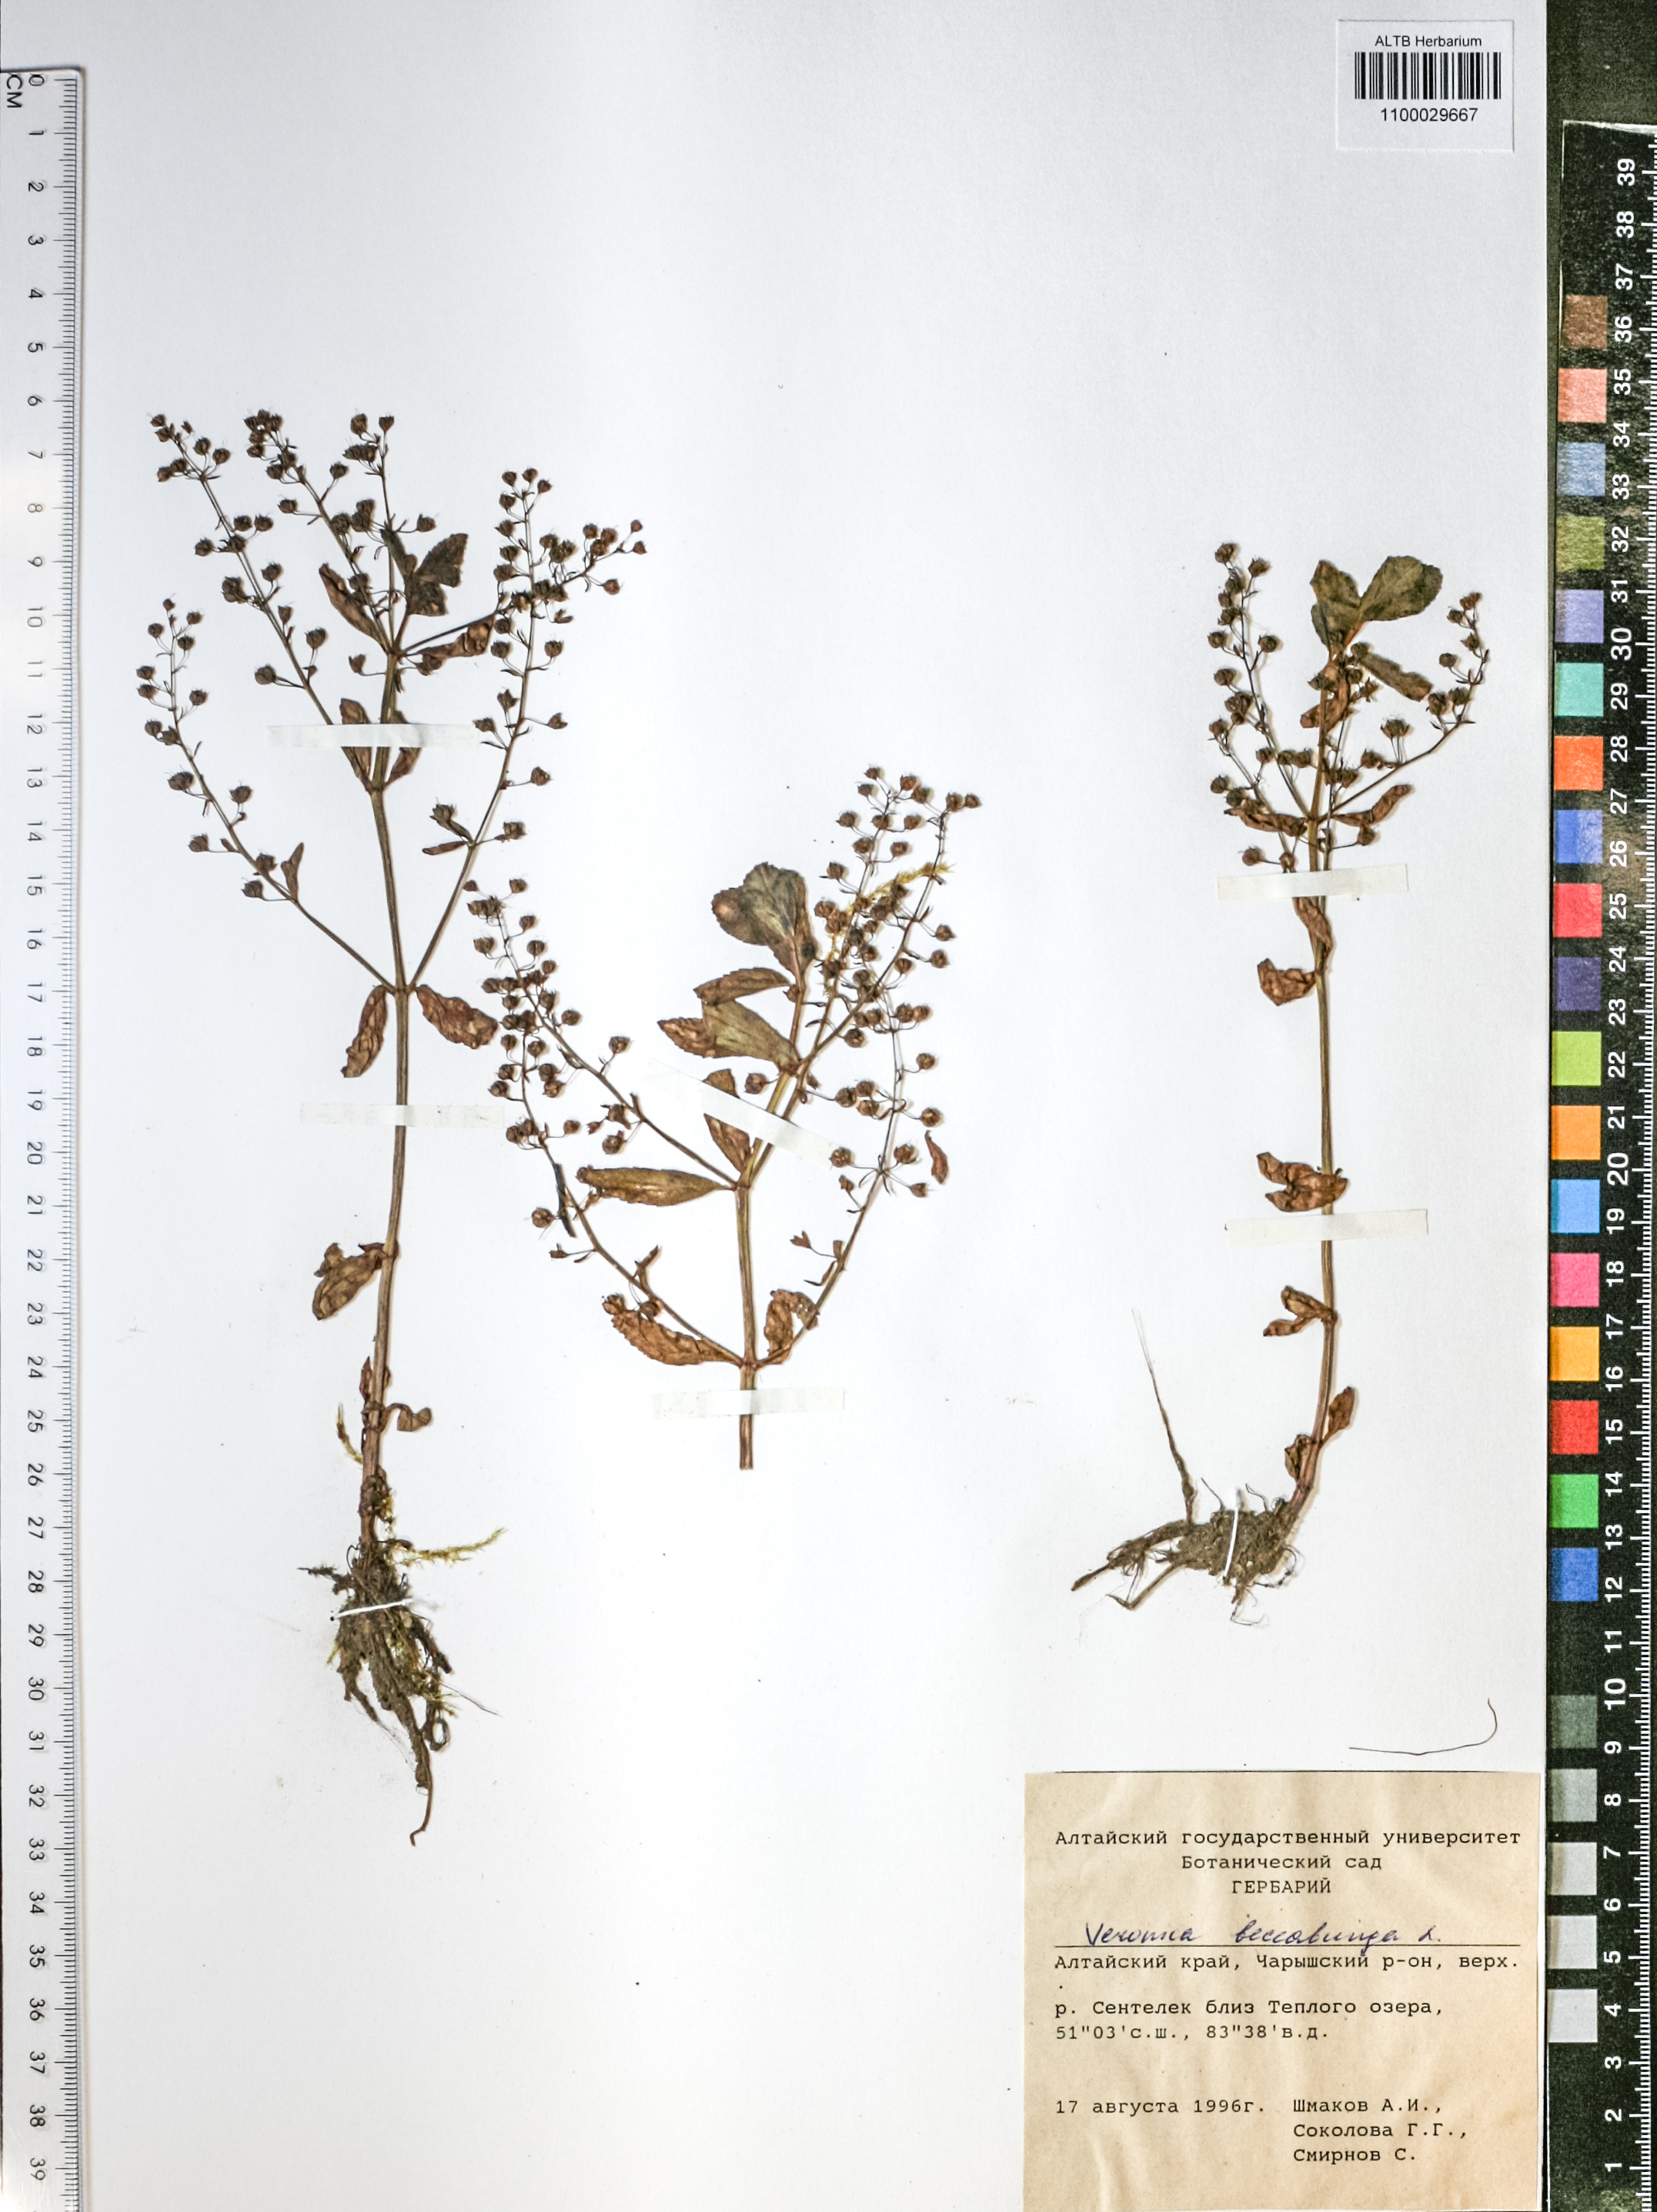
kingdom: Plantae
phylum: Tracheophyta
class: Magnoliopsida
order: Lamiales
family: Plantaginaceae
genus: Veronica
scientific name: Veronica beccabunga
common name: Brooklime
